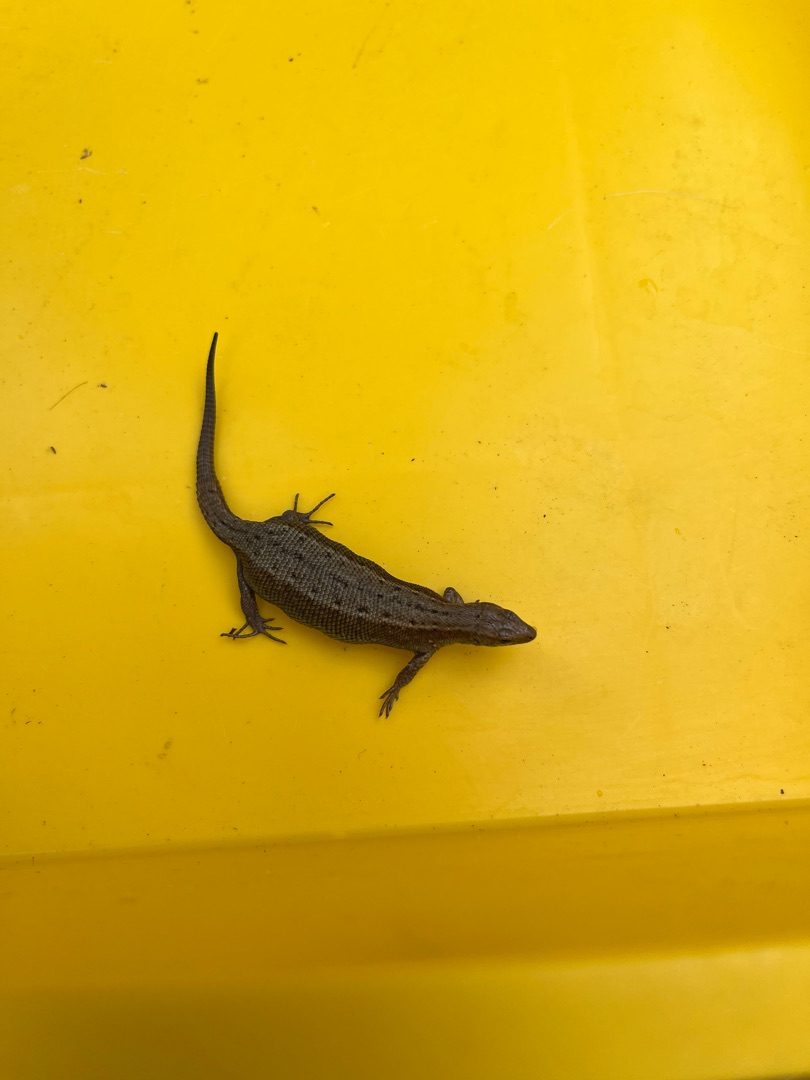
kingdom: Animalia
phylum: Chordata
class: Squamata
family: Lacertidae
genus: Zootoca
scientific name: Zootoca vivipara
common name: Skovfirben
